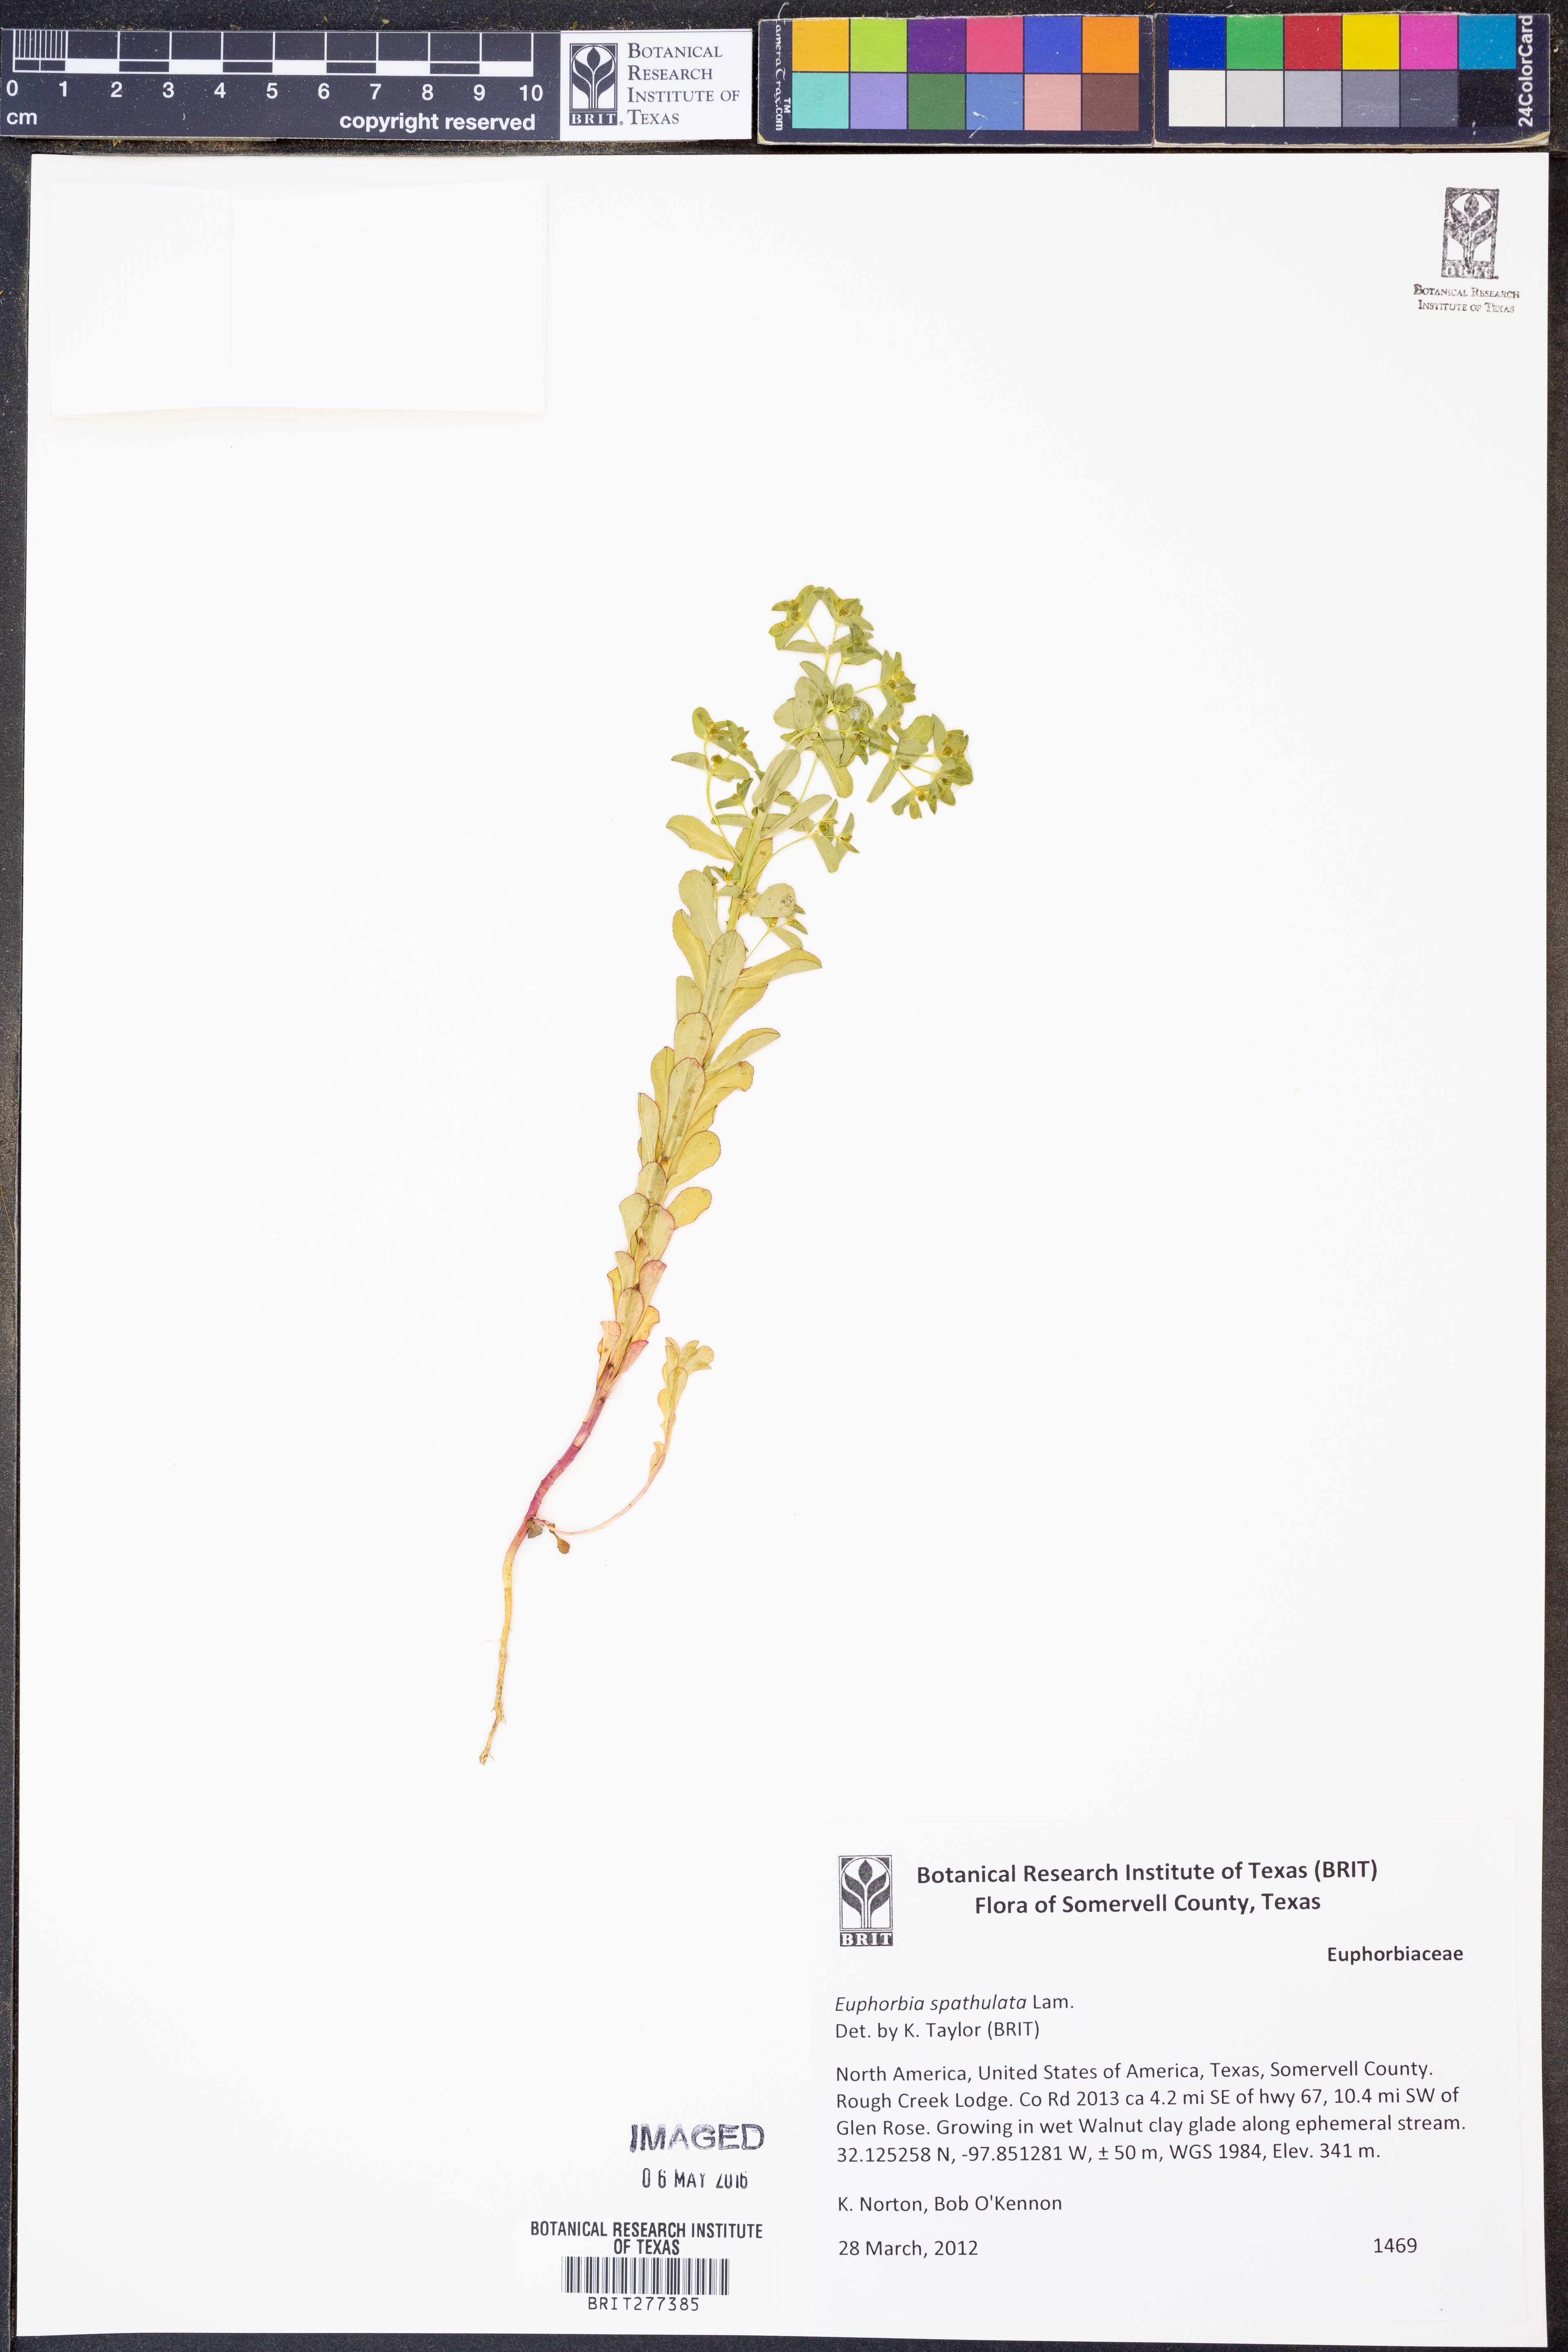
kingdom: Plantae
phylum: Tracheophyta
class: Magnoliopsida
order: Malpighiales
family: Euphorbiaceae
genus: Euphorbia
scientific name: Euphorbia spathulata
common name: Blunt spurge
